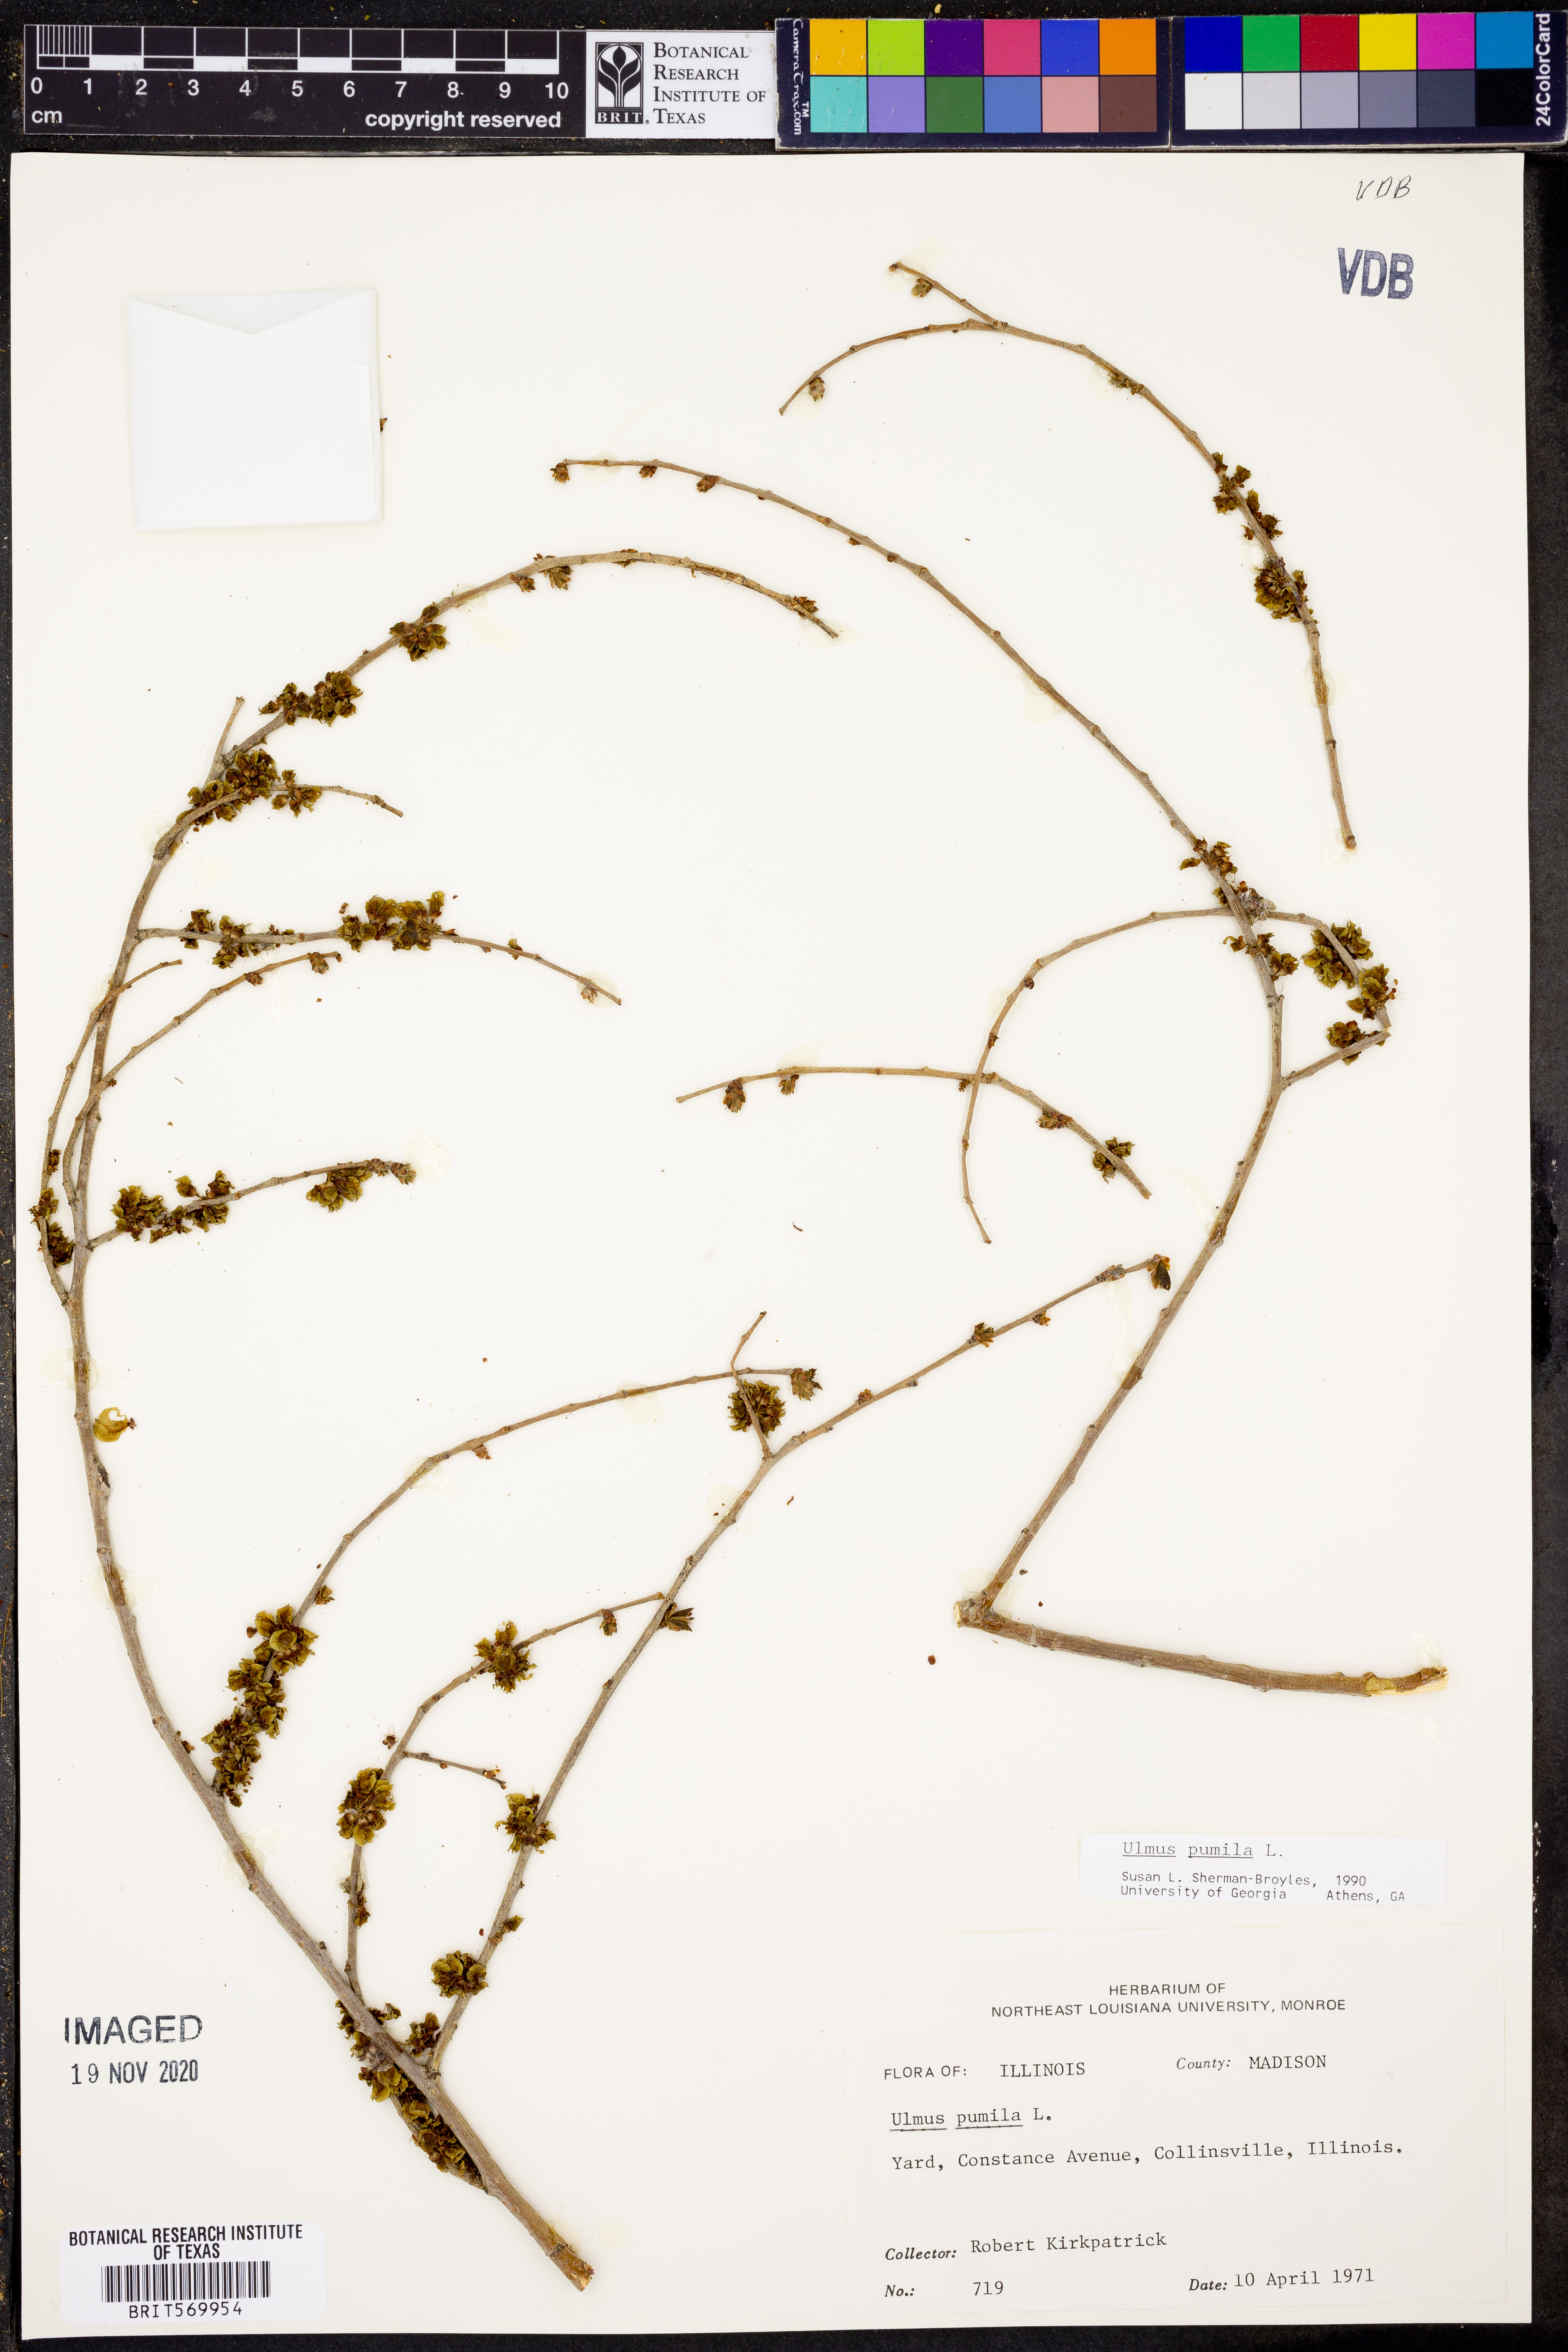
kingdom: Plantae
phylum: Tracheophyta
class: Magnoliopsida
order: Rosales
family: Ulmaceae
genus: Ulmus
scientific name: Ulmus pumila
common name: Siberian elm
